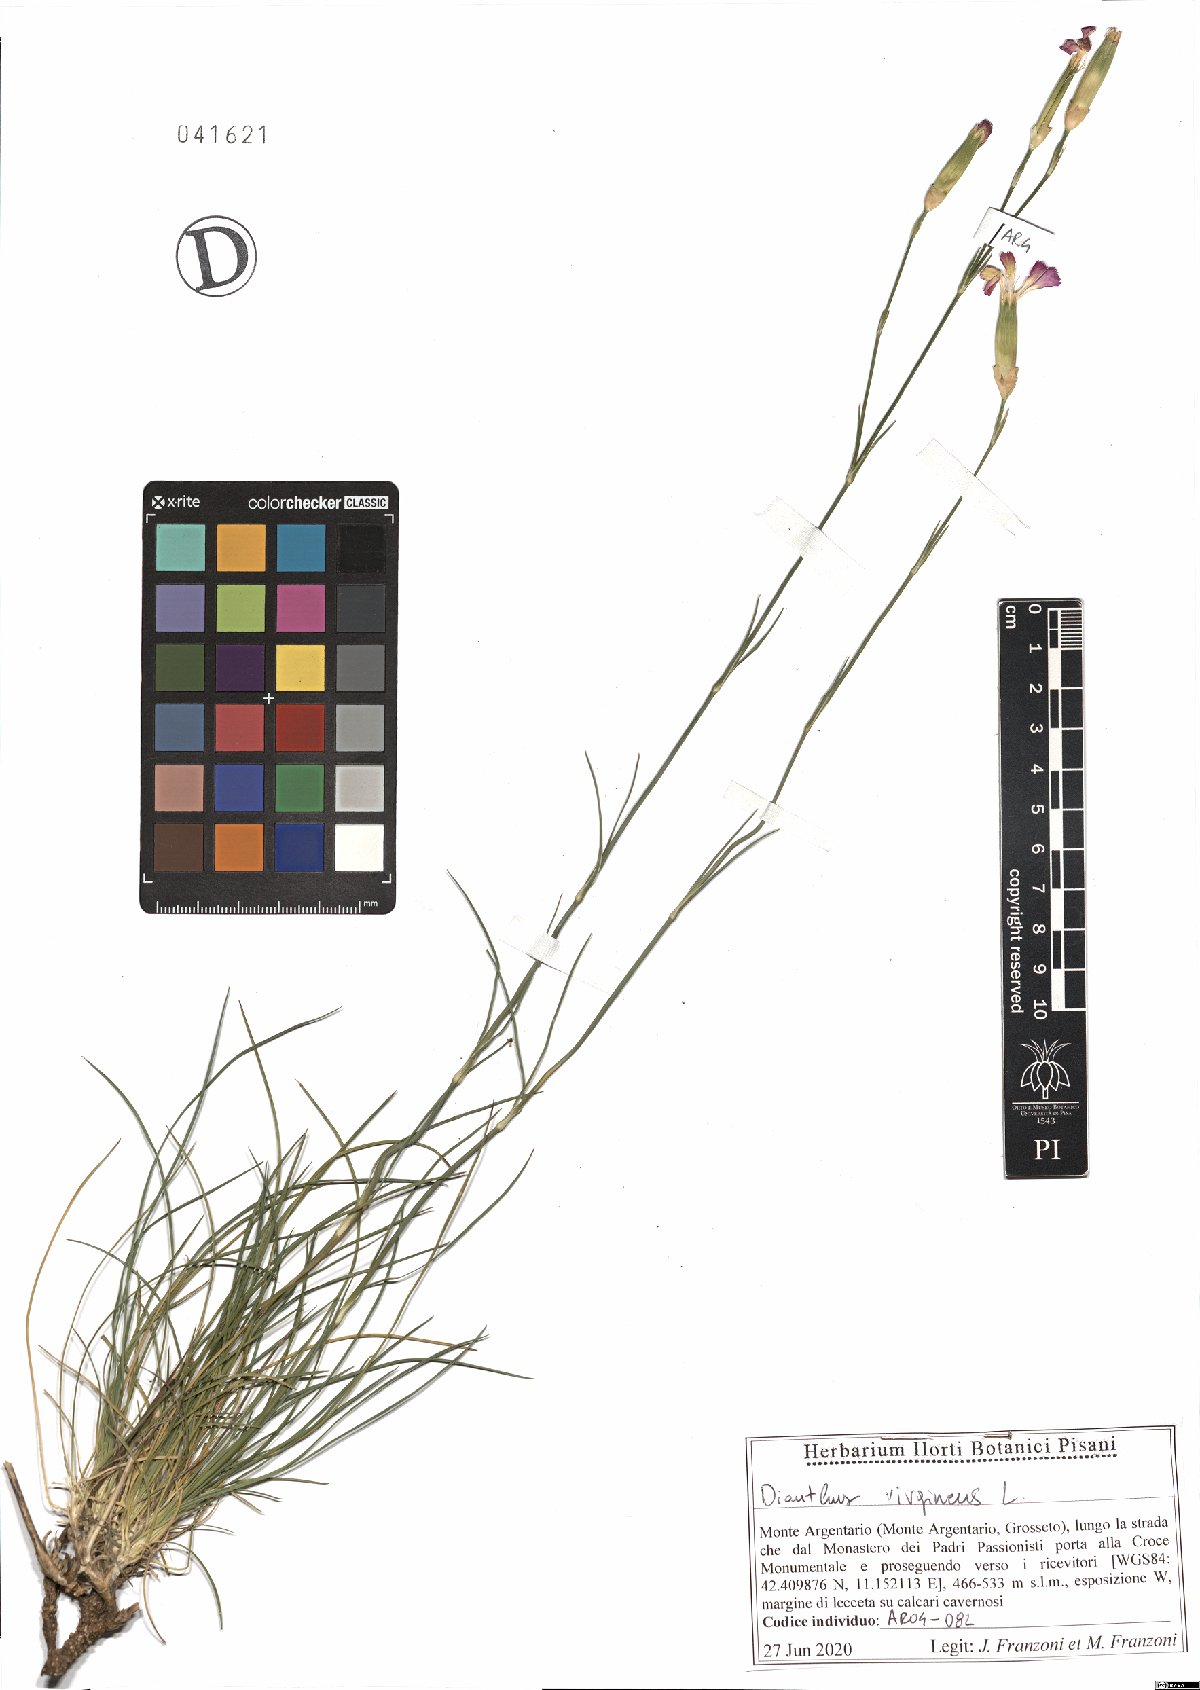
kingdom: Plantae
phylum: Tracheophyta
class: Magnoliopsida
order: Caryophyllales
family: Caryophyllaceae
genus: Dianthus
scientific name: Dianthus virgineus
